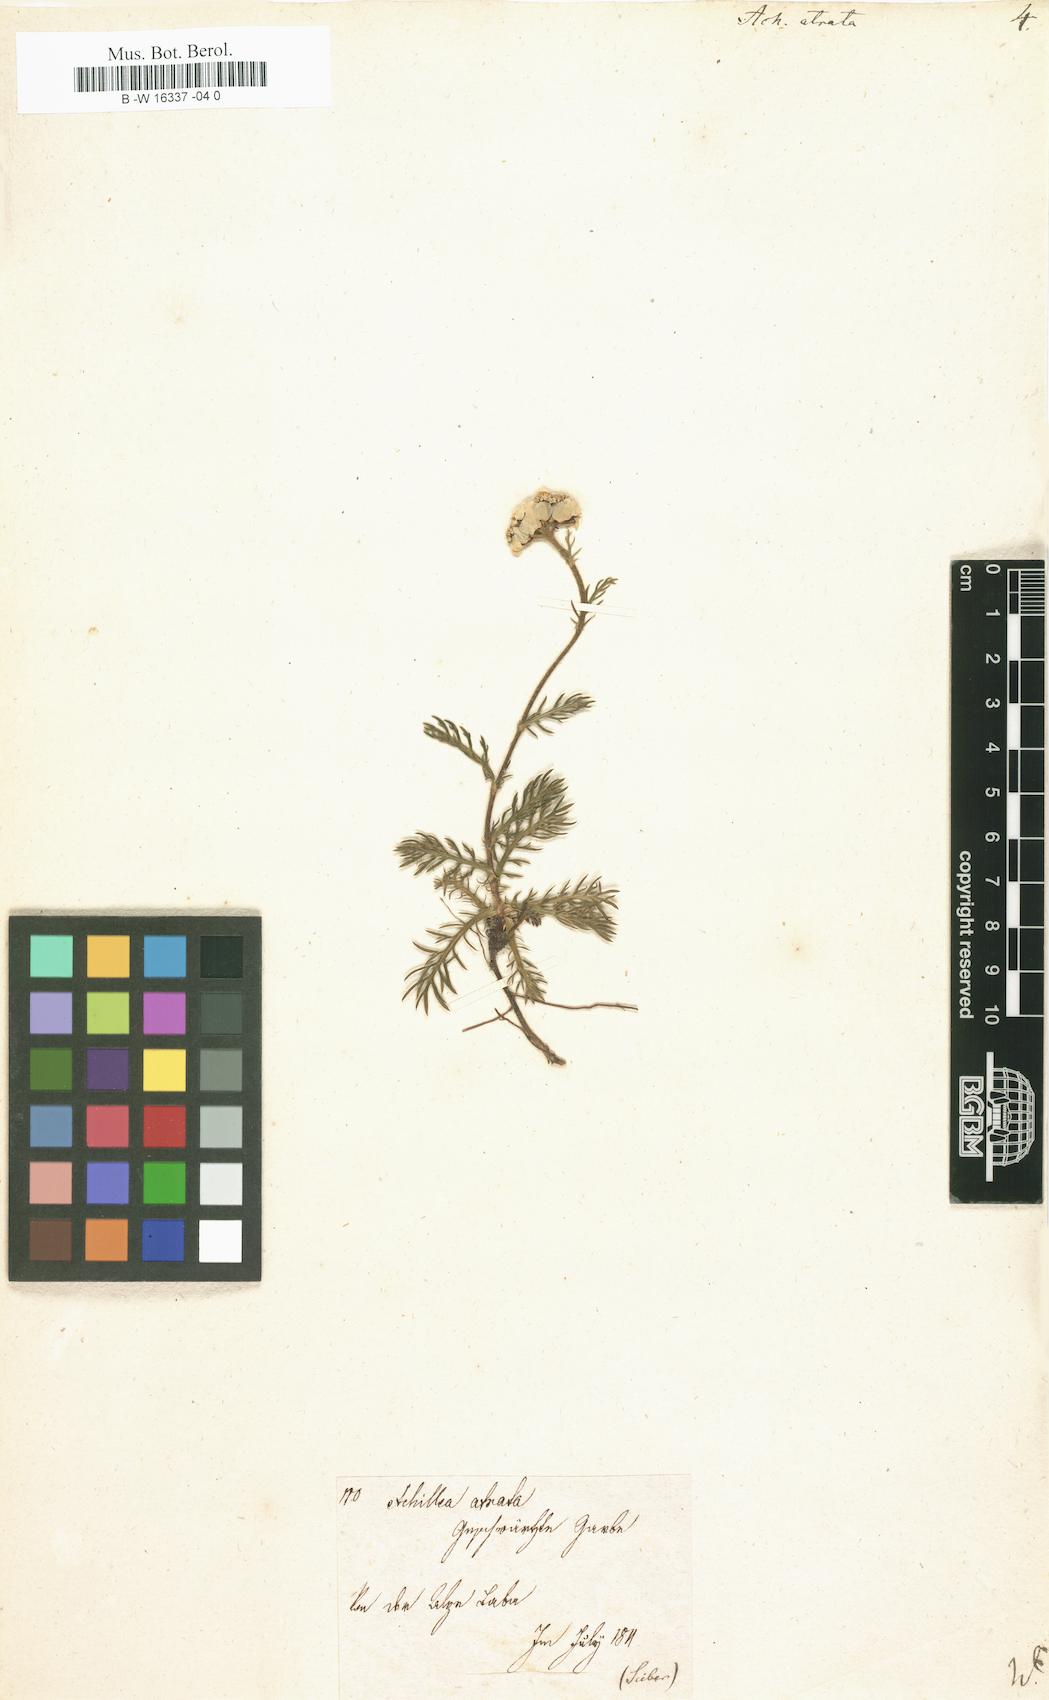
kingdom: Plantae
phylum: Tracheophyta
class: Magnoliopsida
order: Asterales
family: Asteraceae
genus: Achillea
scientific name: Achillea atrata
